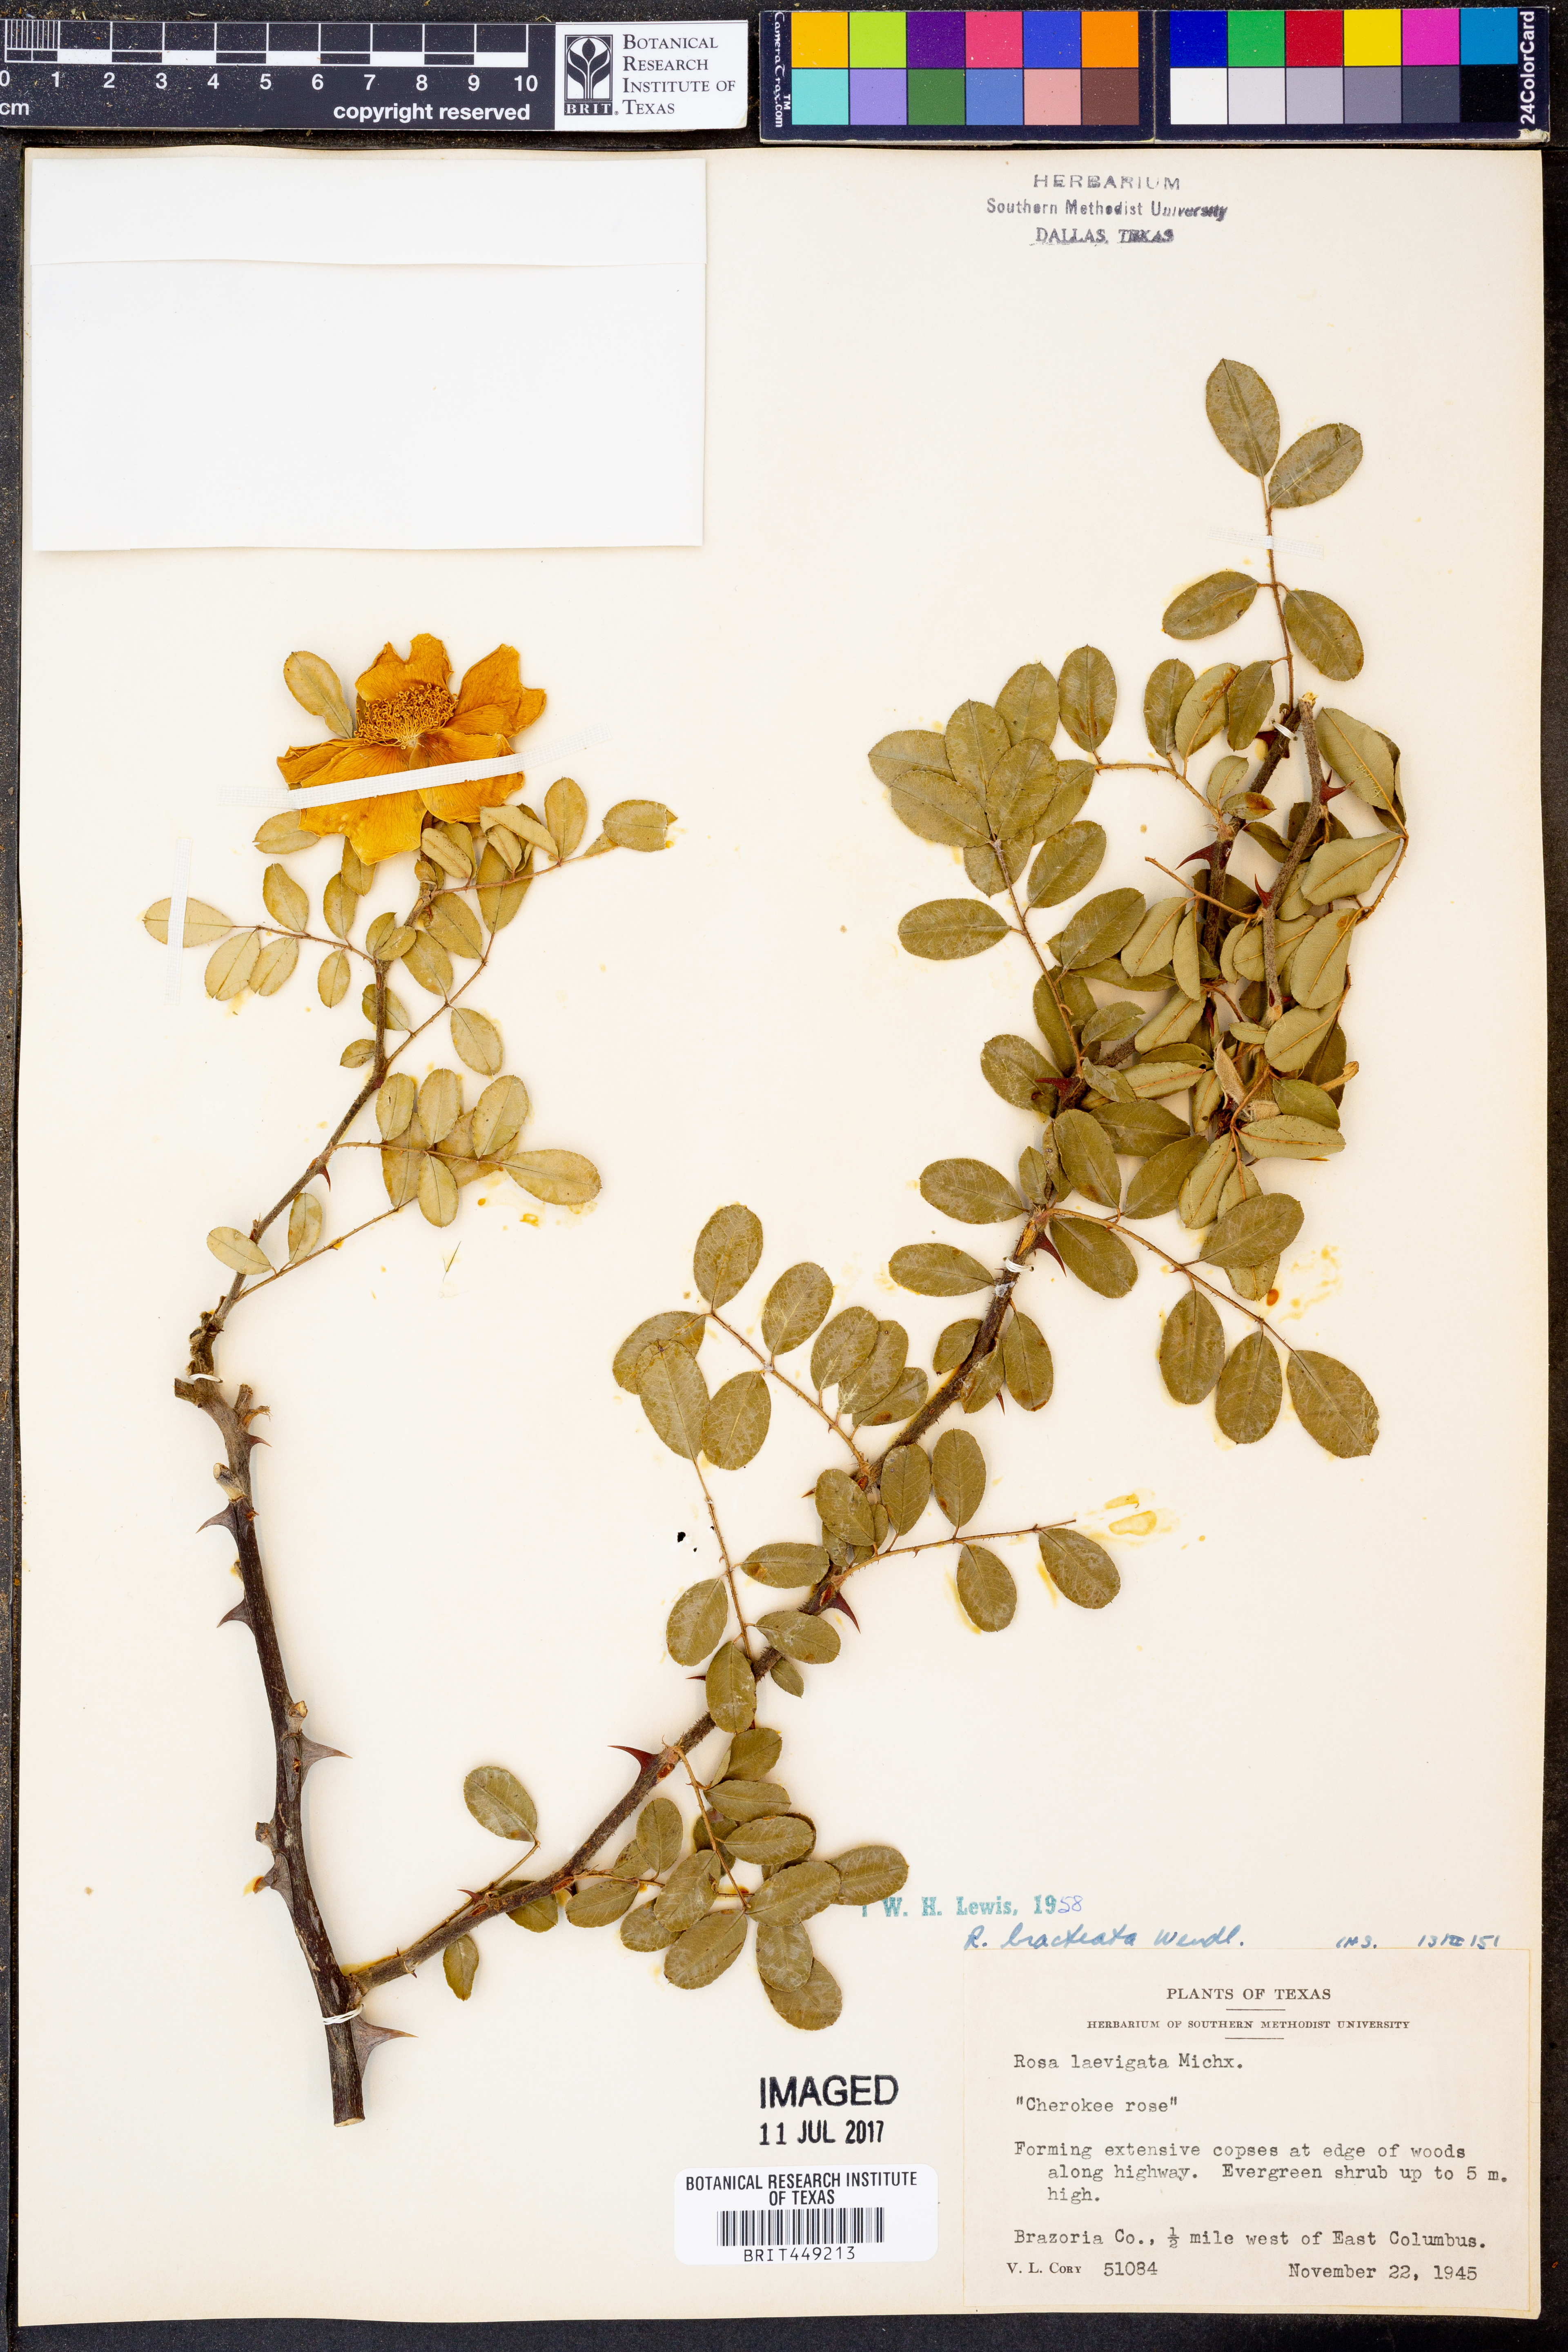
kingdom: Plantae
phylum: Tracheophyta
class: Magnoliopsida
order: Rosales
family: Rosaceae
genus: Rosa
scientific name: Rosa laevigata
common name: Cherokee rose
